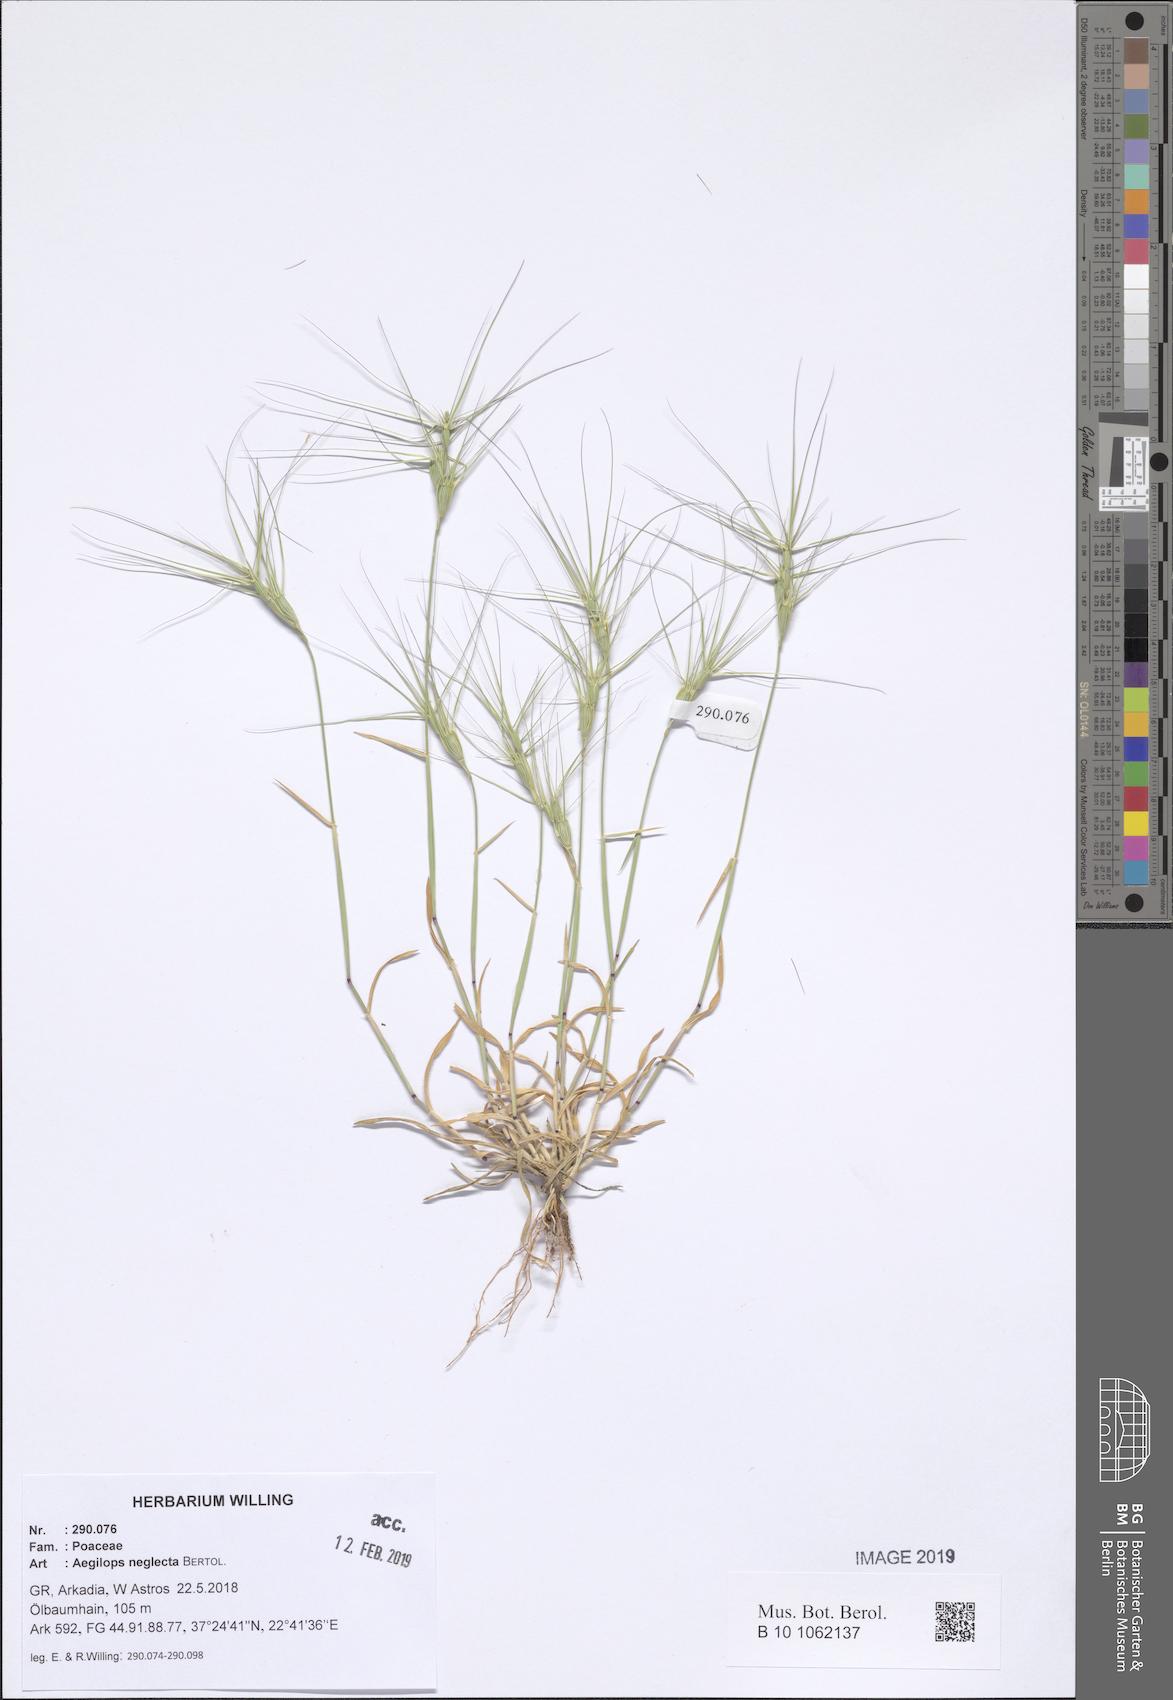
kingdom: Plantae
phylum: Tracheophyta
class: Liliopsida
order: Poales
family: Poaceae
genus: Aegilops
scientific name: Aegilops neglecta
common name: Three-awn goat grass
